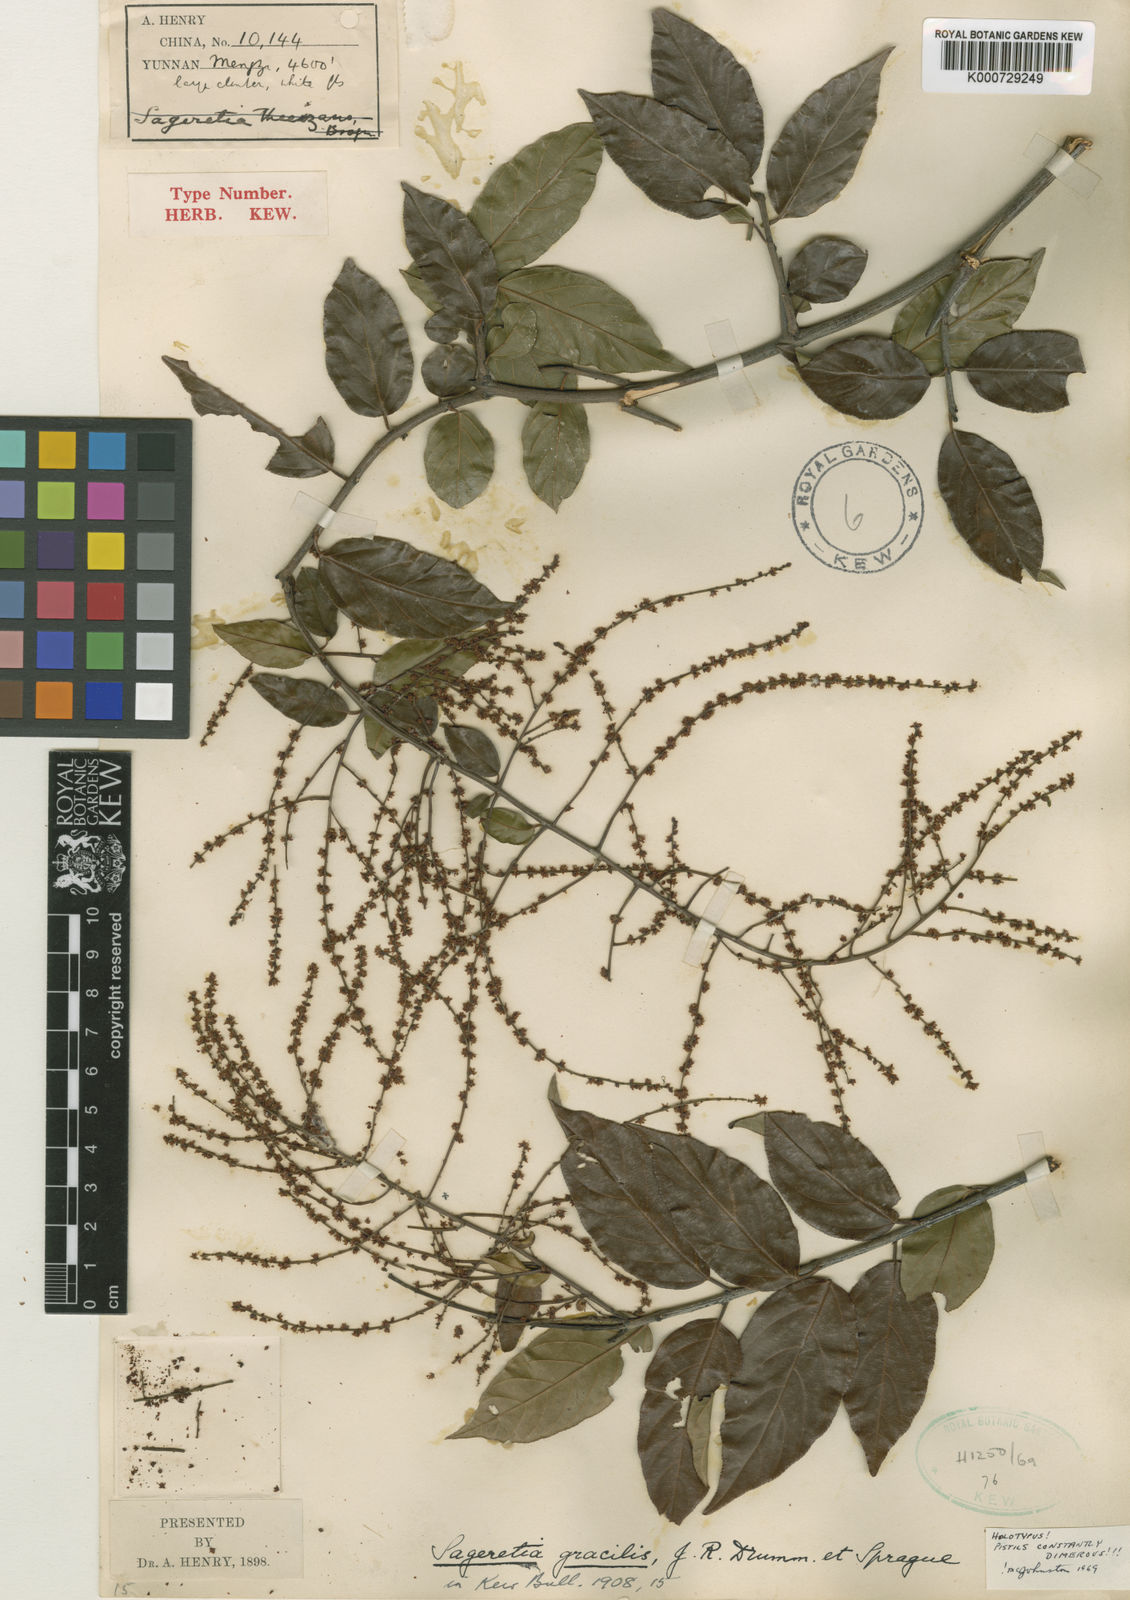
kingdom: Plantae
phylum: Tracheophyta
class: Magnoliopsida
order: Rosales
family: Rhamnaceae
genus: Sageretia
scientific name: Sageretia gracilis
